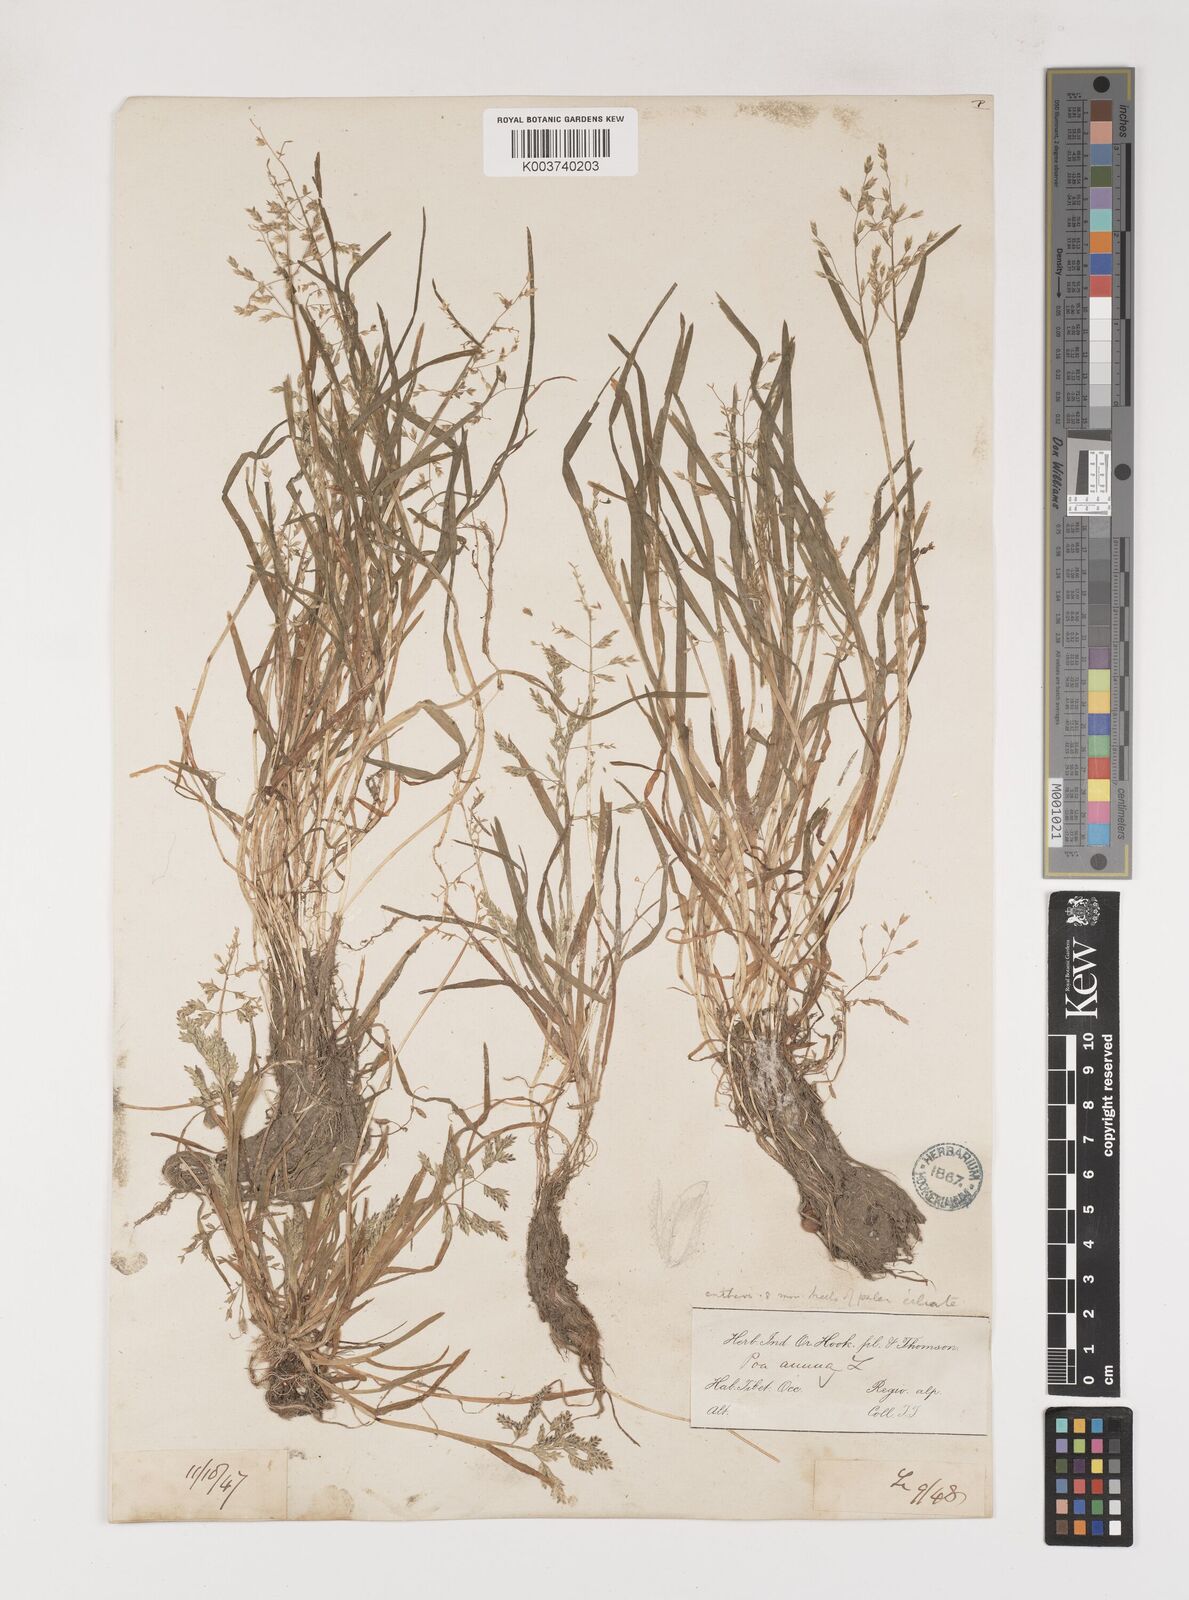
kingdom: Plantae
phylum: Tracheophyta
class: Liliopsida
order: Poales
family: Poaceae
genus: Poa
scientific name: Poa annua
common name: Annual bluegrass
